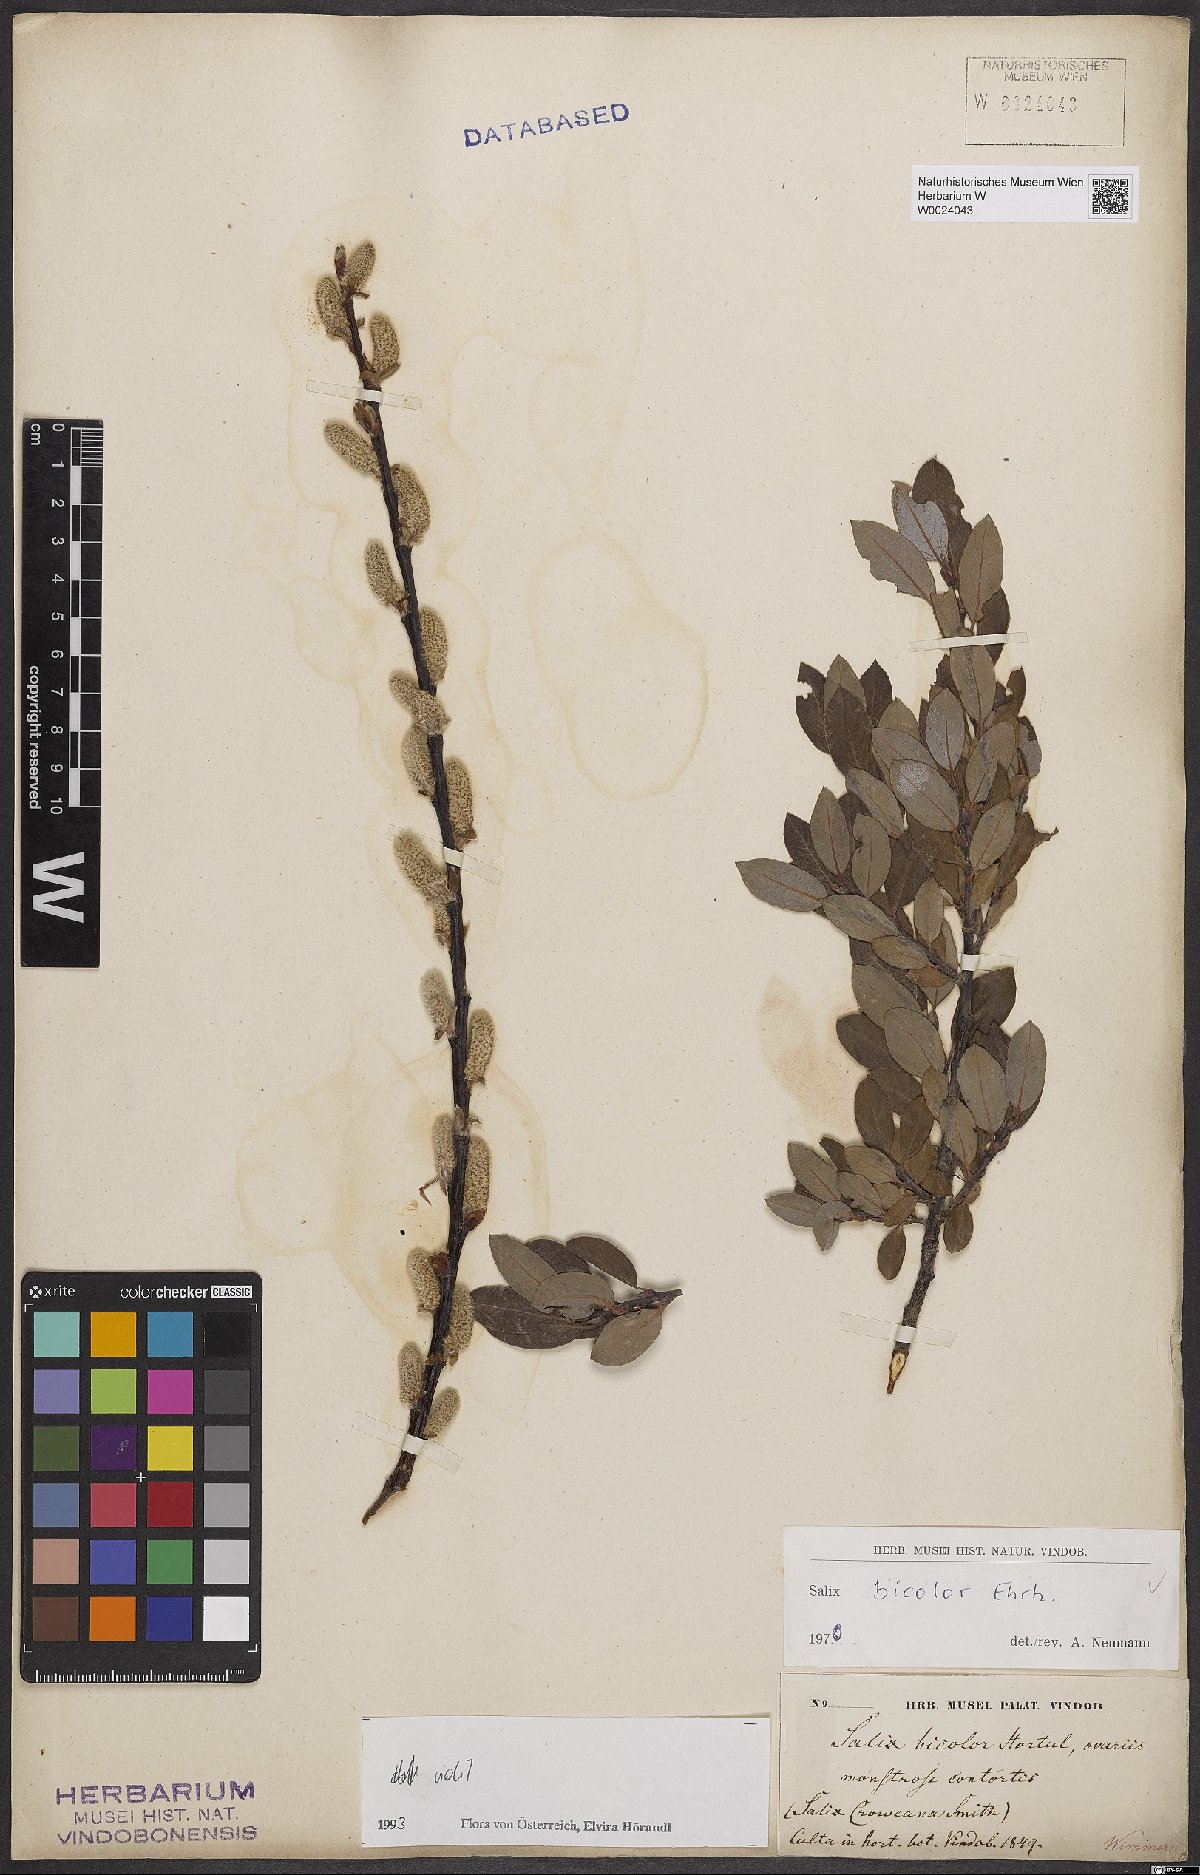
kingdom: Plantae
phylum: Tracheophyta
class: Magnoliopsida
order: Malpighiales
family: Salicaceae
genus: Salix
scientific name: Salix bicolor
